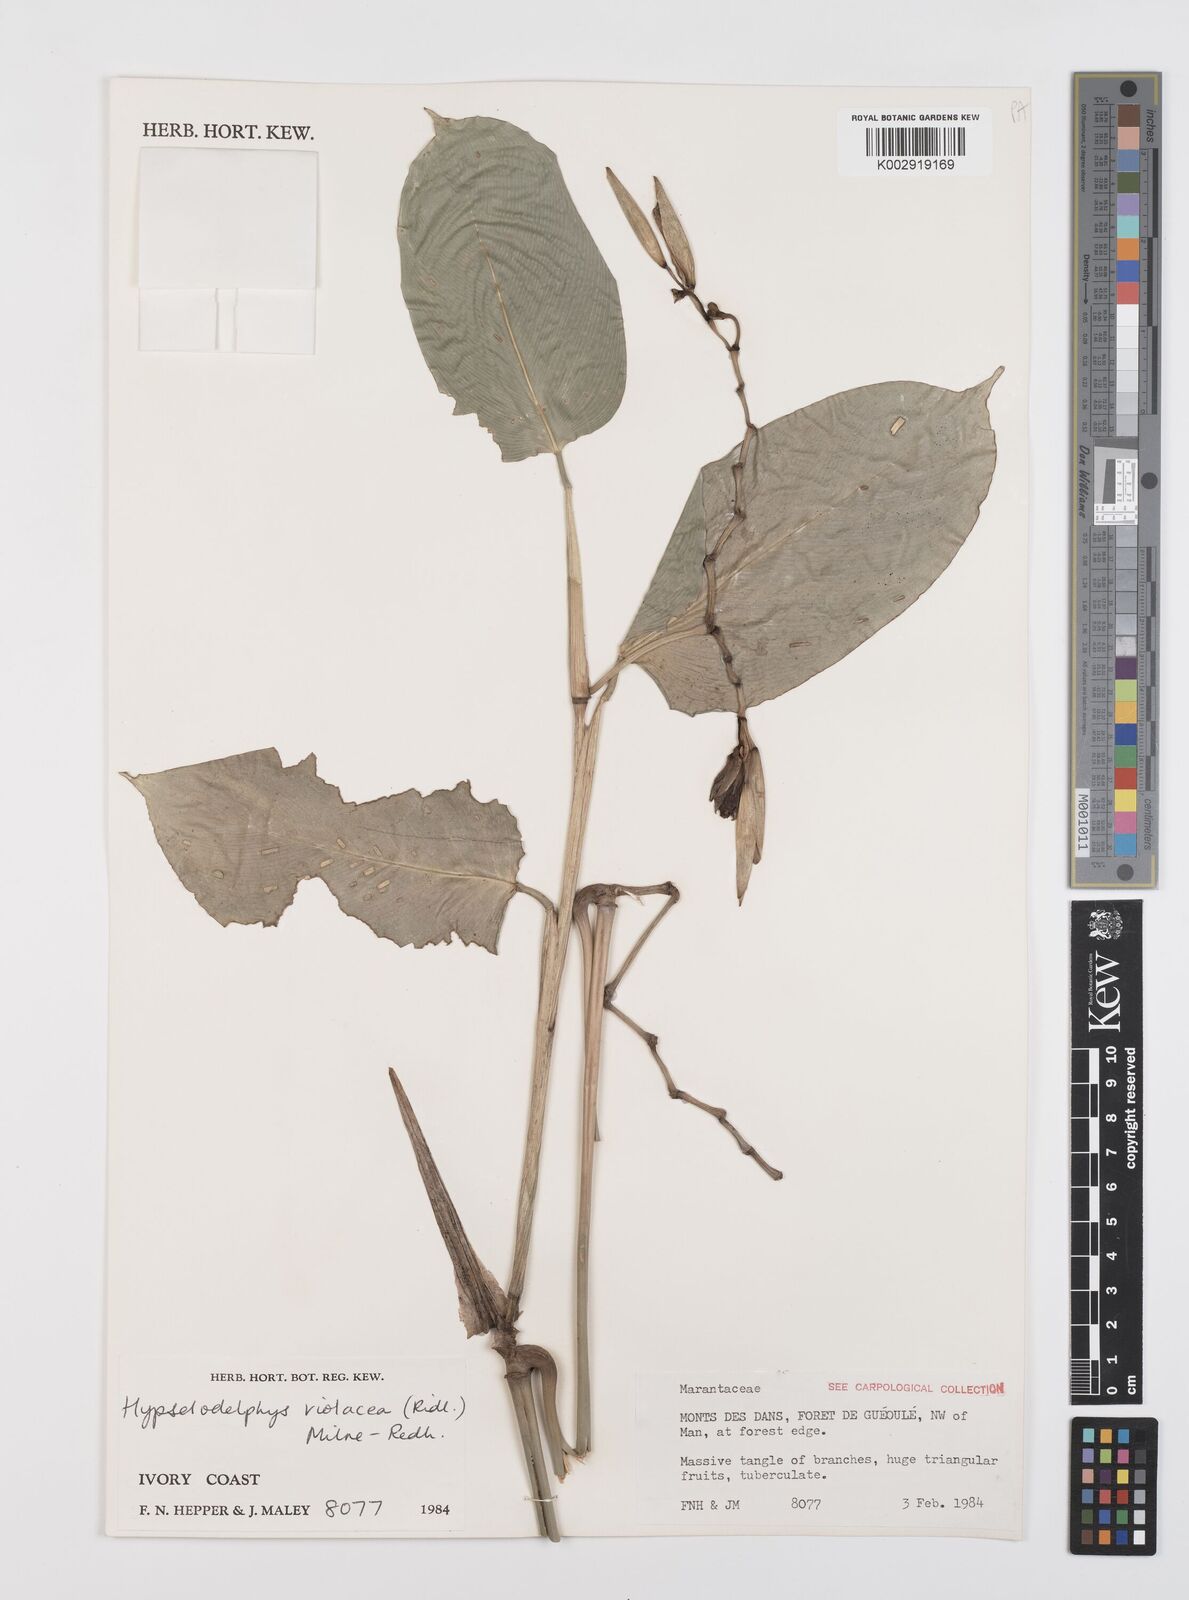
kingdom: Plantae
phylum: Tracheophyta
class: Liliopsida
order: Zingiberales
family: Marantaceae
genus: Hypselodelphys
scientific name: Hypselodelphys violacea
